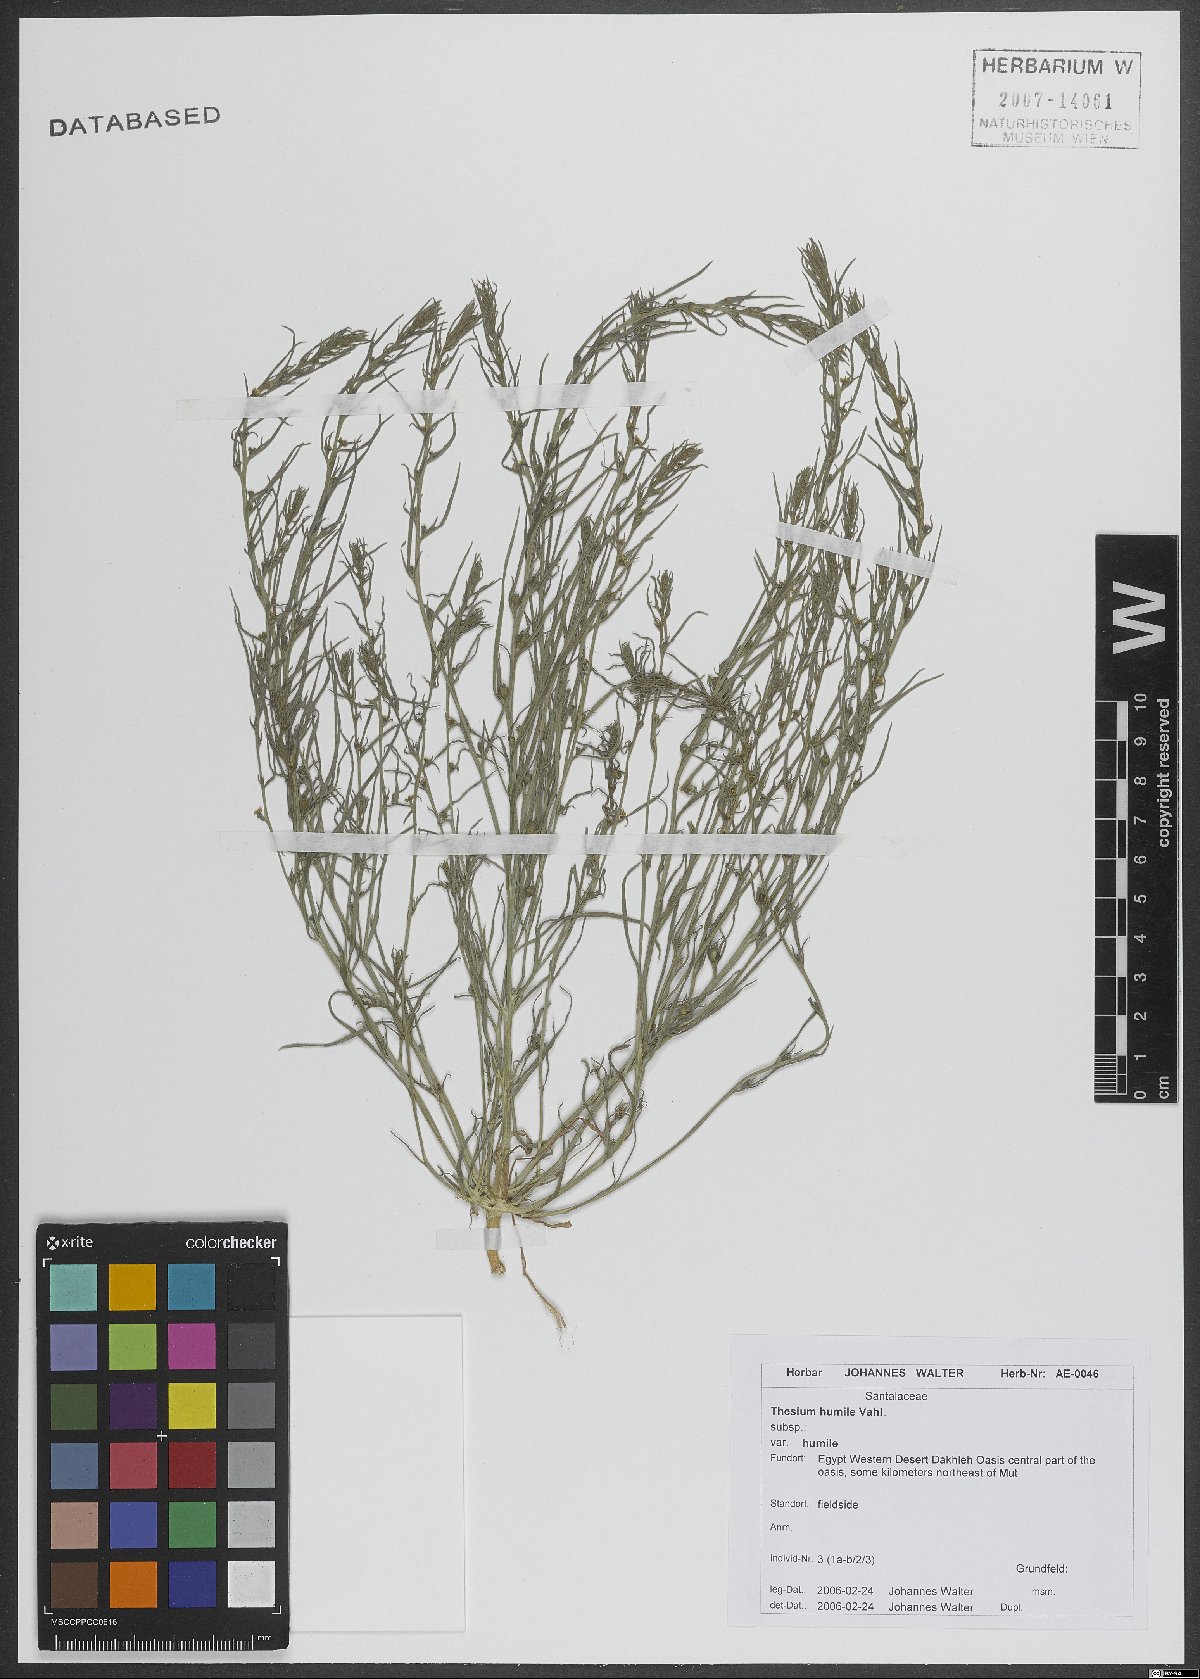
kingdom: Plantae
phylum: Tracheophyta
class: Magnoliopsida
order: Santalales
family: Thesiaceae
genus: Thesium
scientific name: Thesium humile
